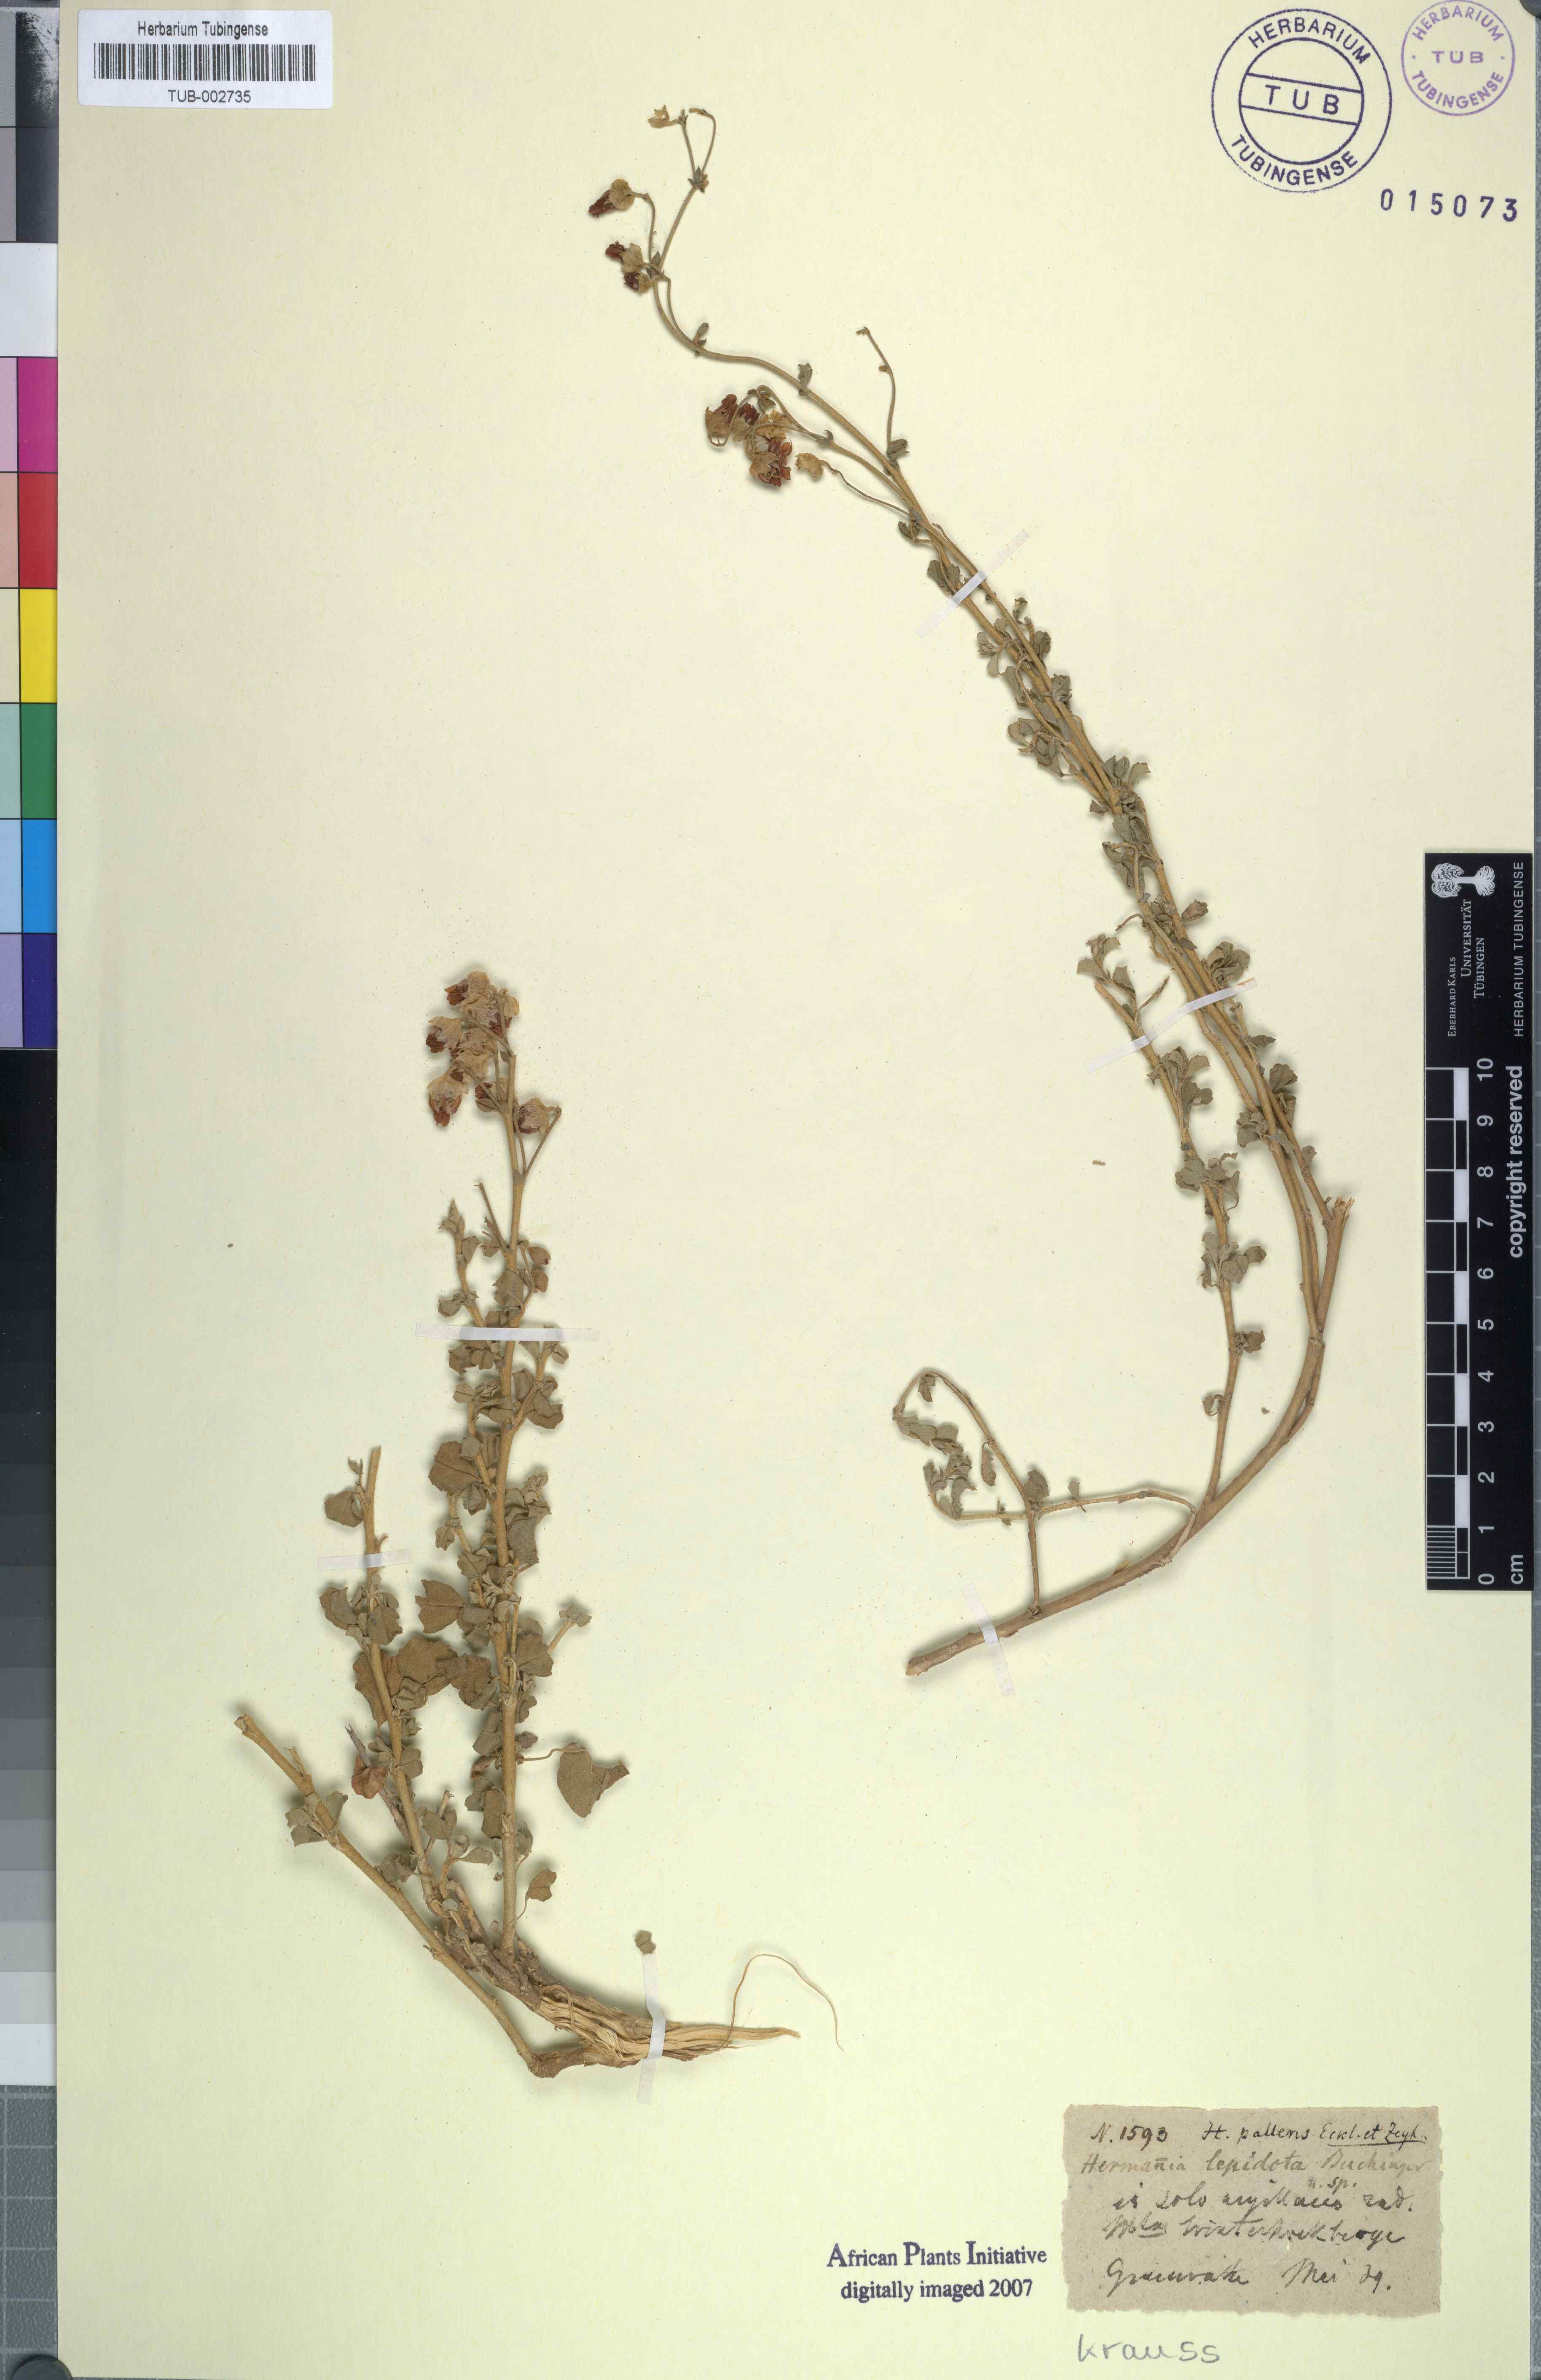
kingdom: Plantae
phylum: Tracheophyta
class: Magnoliopsida
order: Malvales
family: Malvaceae
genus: Hermannia
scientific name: Hermannia cuneifolia
